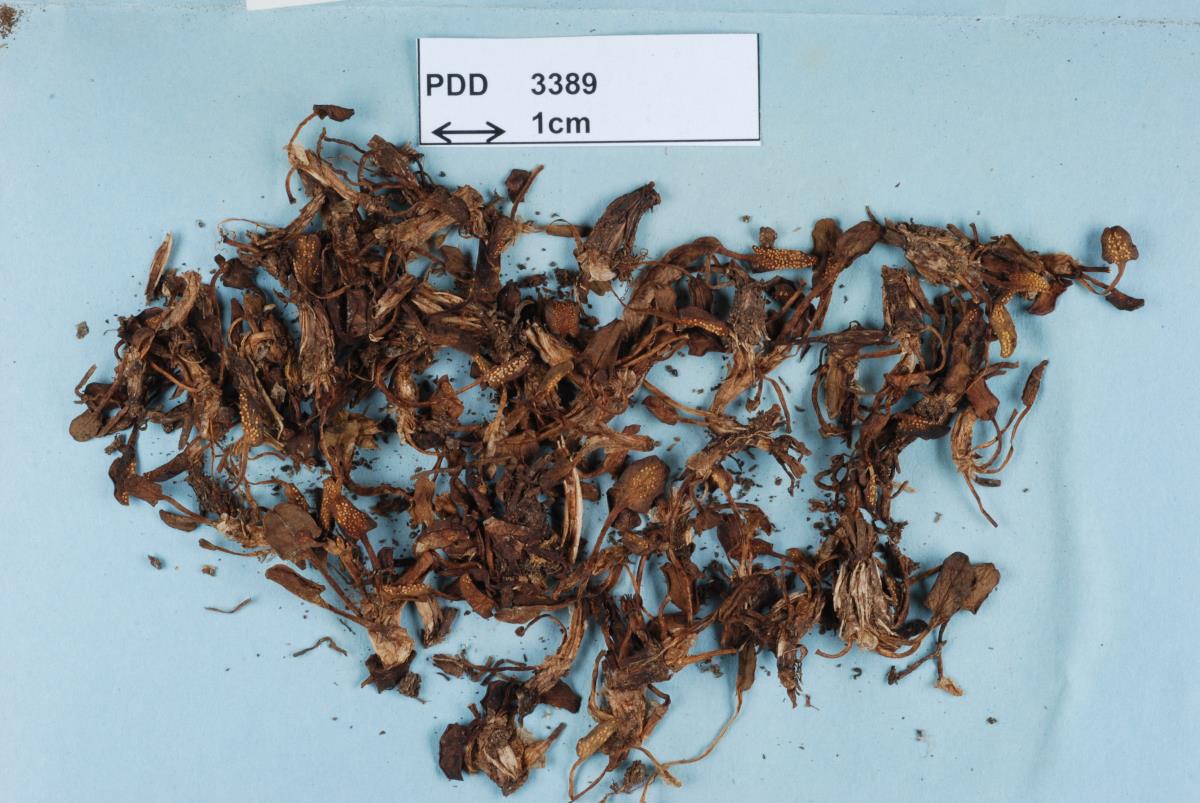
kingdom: Fungi
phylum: Basidiomycota
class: Pucciniomycetes
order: Pucciniales
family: Pucciniaceae
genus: Aecidium
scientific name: Aecidium westlandicum
